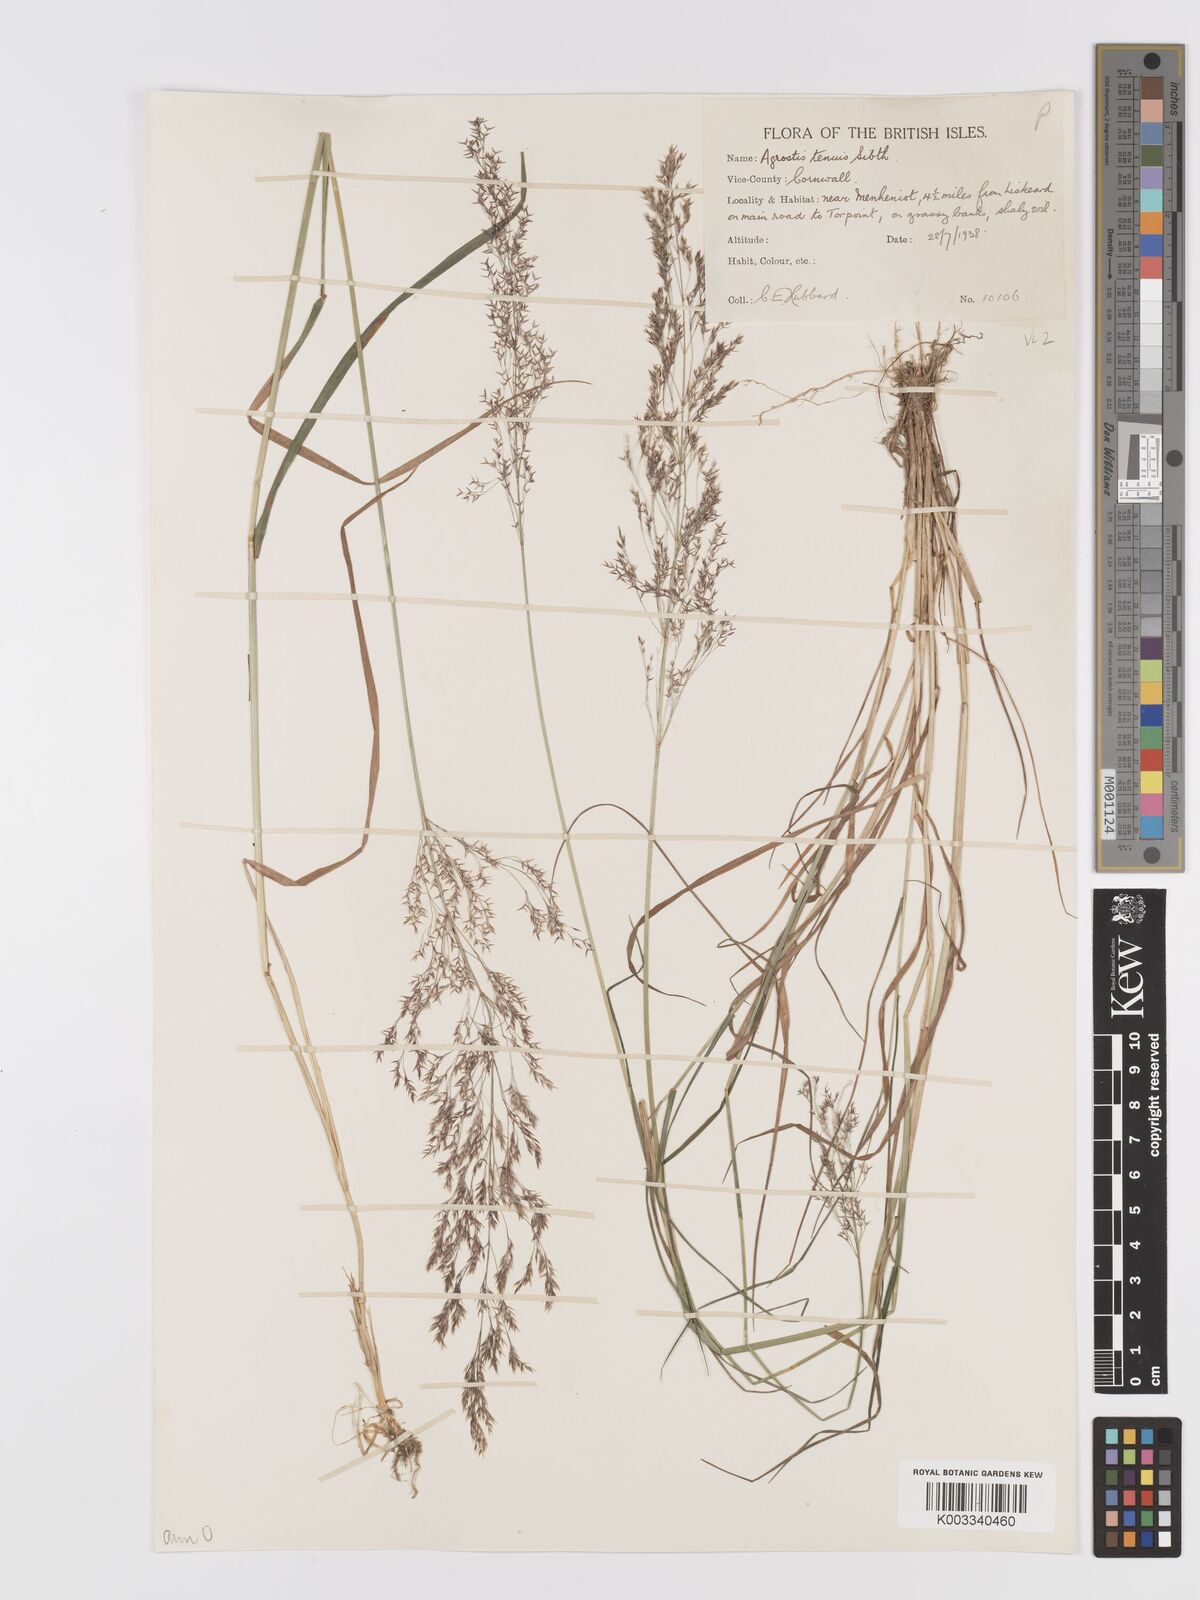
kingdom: Plantae
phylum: Tracheophyta
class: Liliopsida
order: Poales
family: Poaceae
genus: Agrostis
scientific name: Agrostis capillaris
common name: Colonial bentgrass
